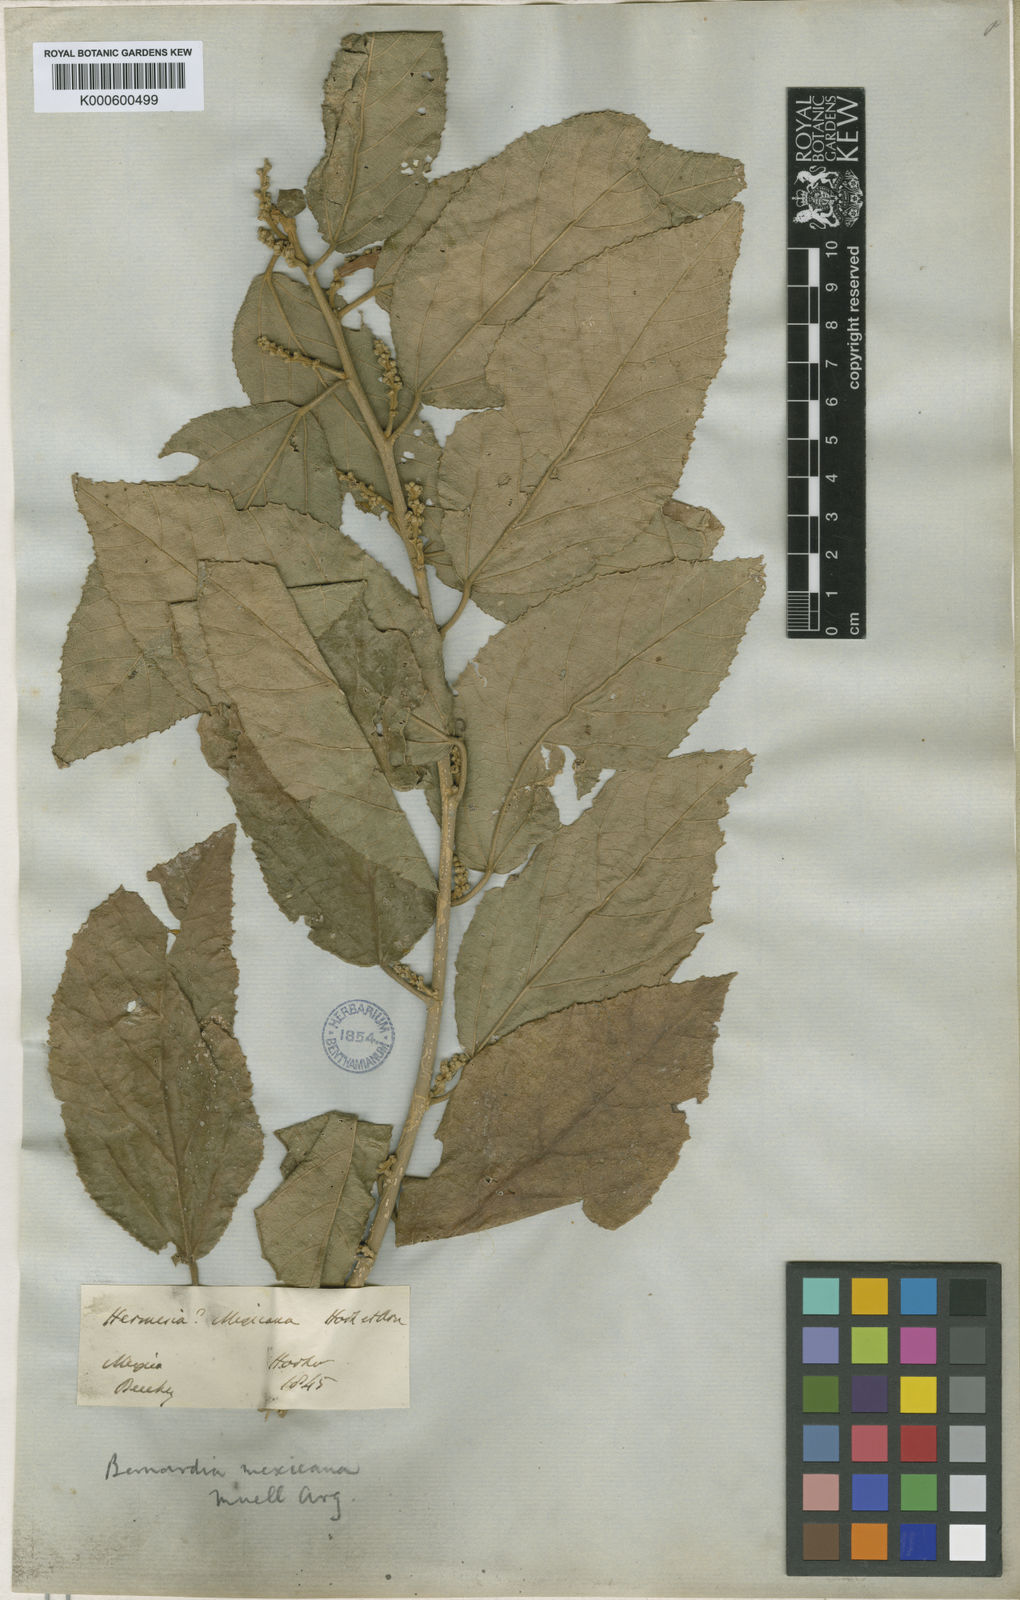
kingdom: Plantae
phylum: Tracheophyta
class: Magnoliopsida
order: Malpighiales
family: Euphorbiaceae
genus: Bernardia
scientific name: Bernardia
